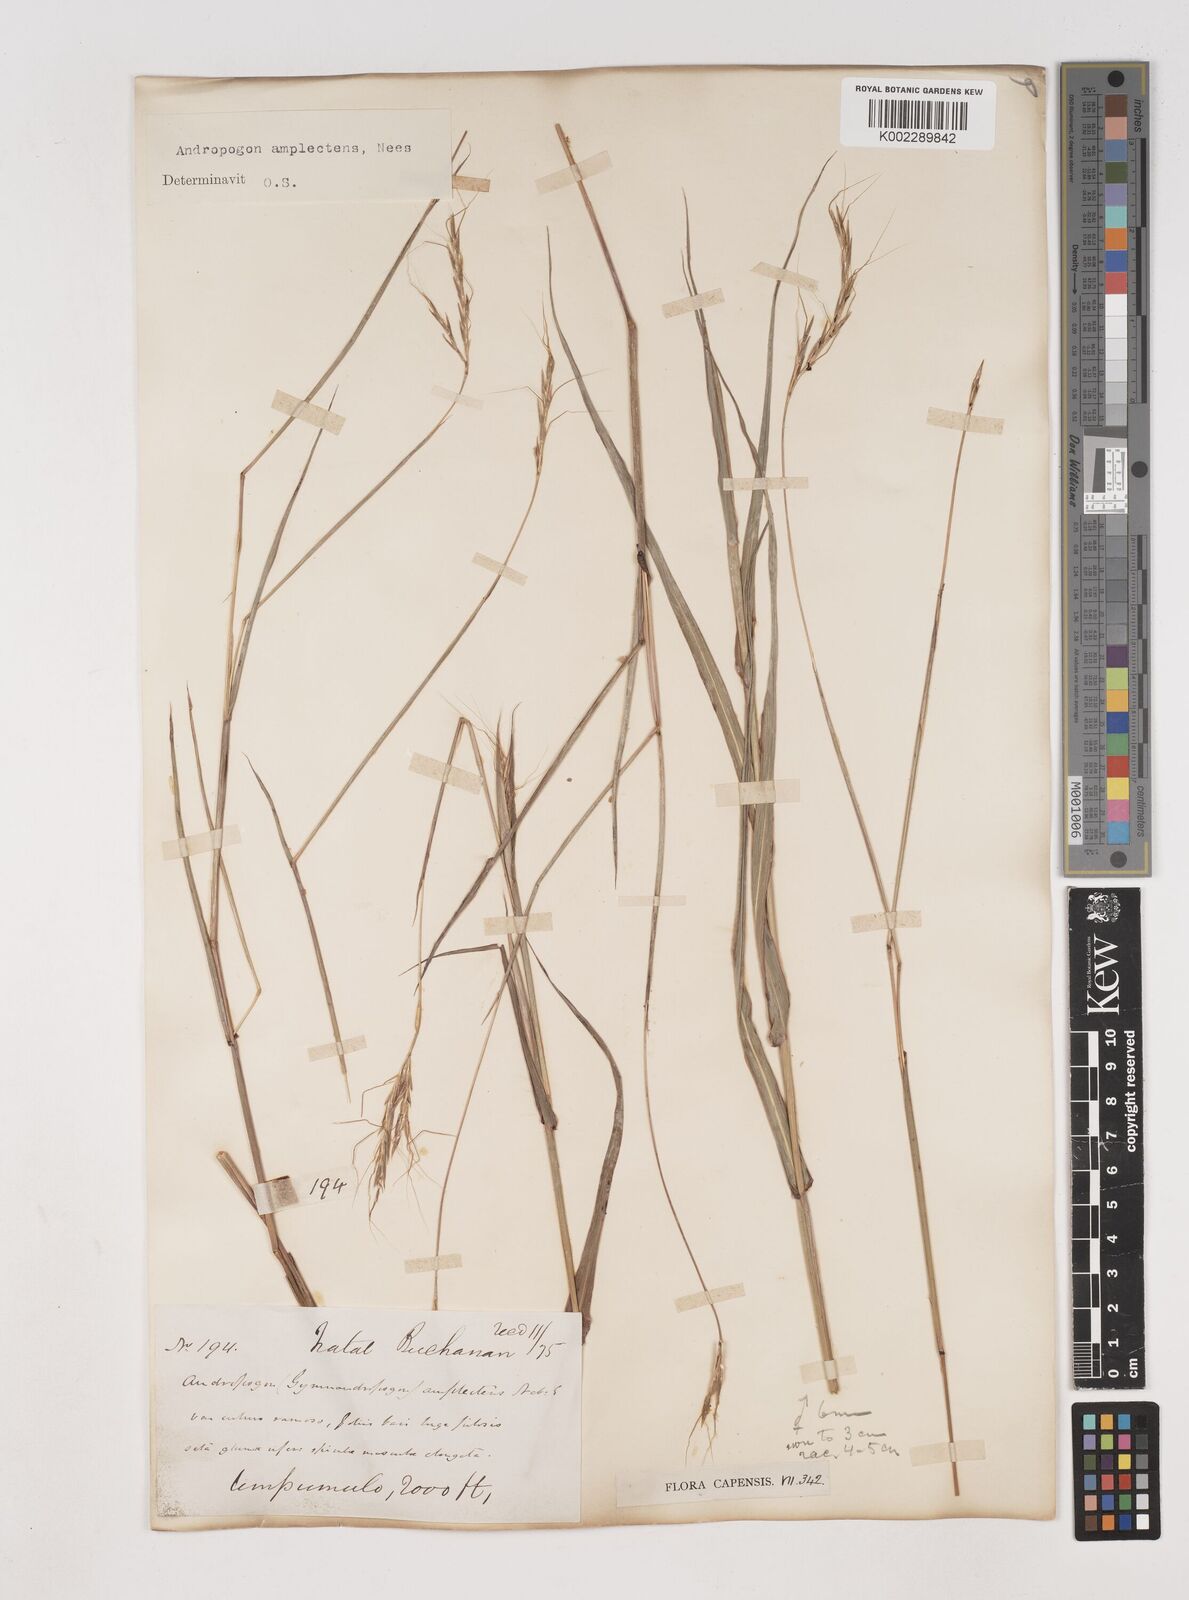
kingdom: Plantae
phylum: Tracheophyta
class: Liliopsida
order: Poales
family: Poaceae
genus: Diheteropogon
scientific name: Diheteropogon amplectens
